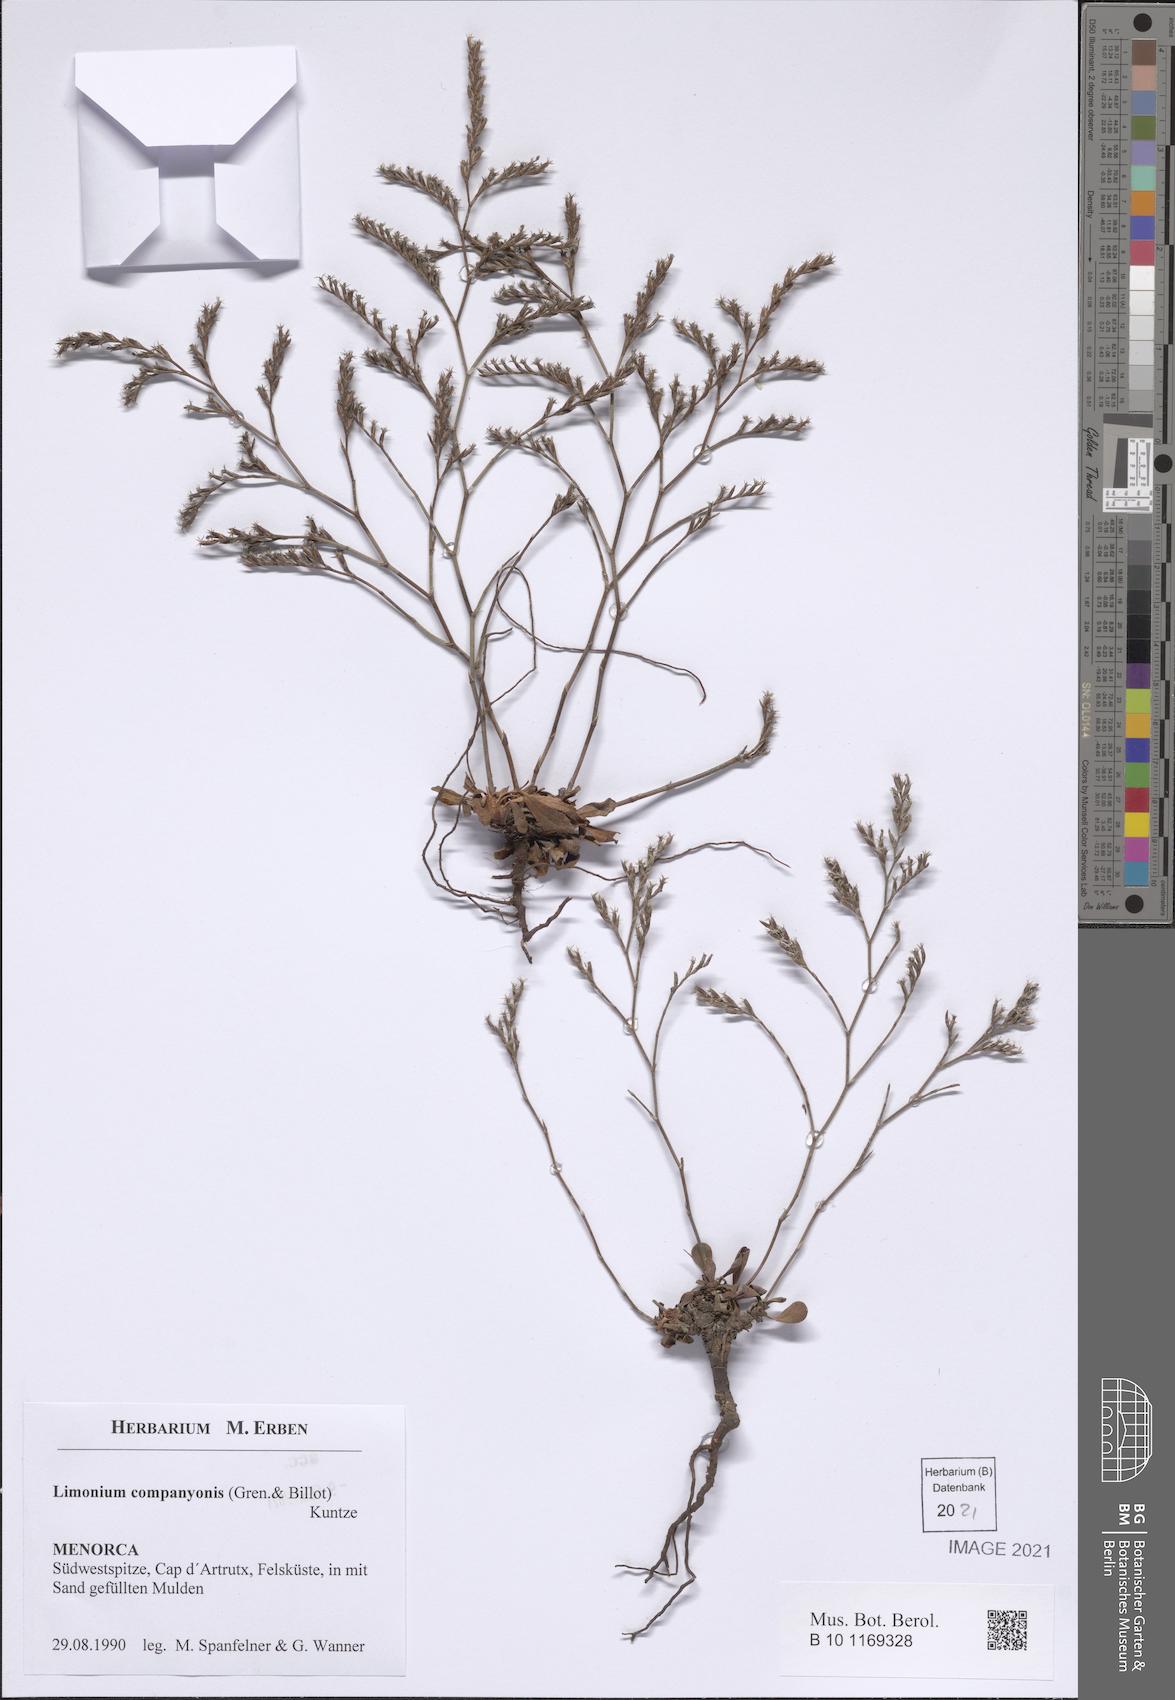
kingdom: Plantae
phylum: Tracheophyta
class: Magnoliopsida
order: Caryophyllales
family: Plumbaginaceae
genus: Limonium
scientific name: Limonium companyonis
